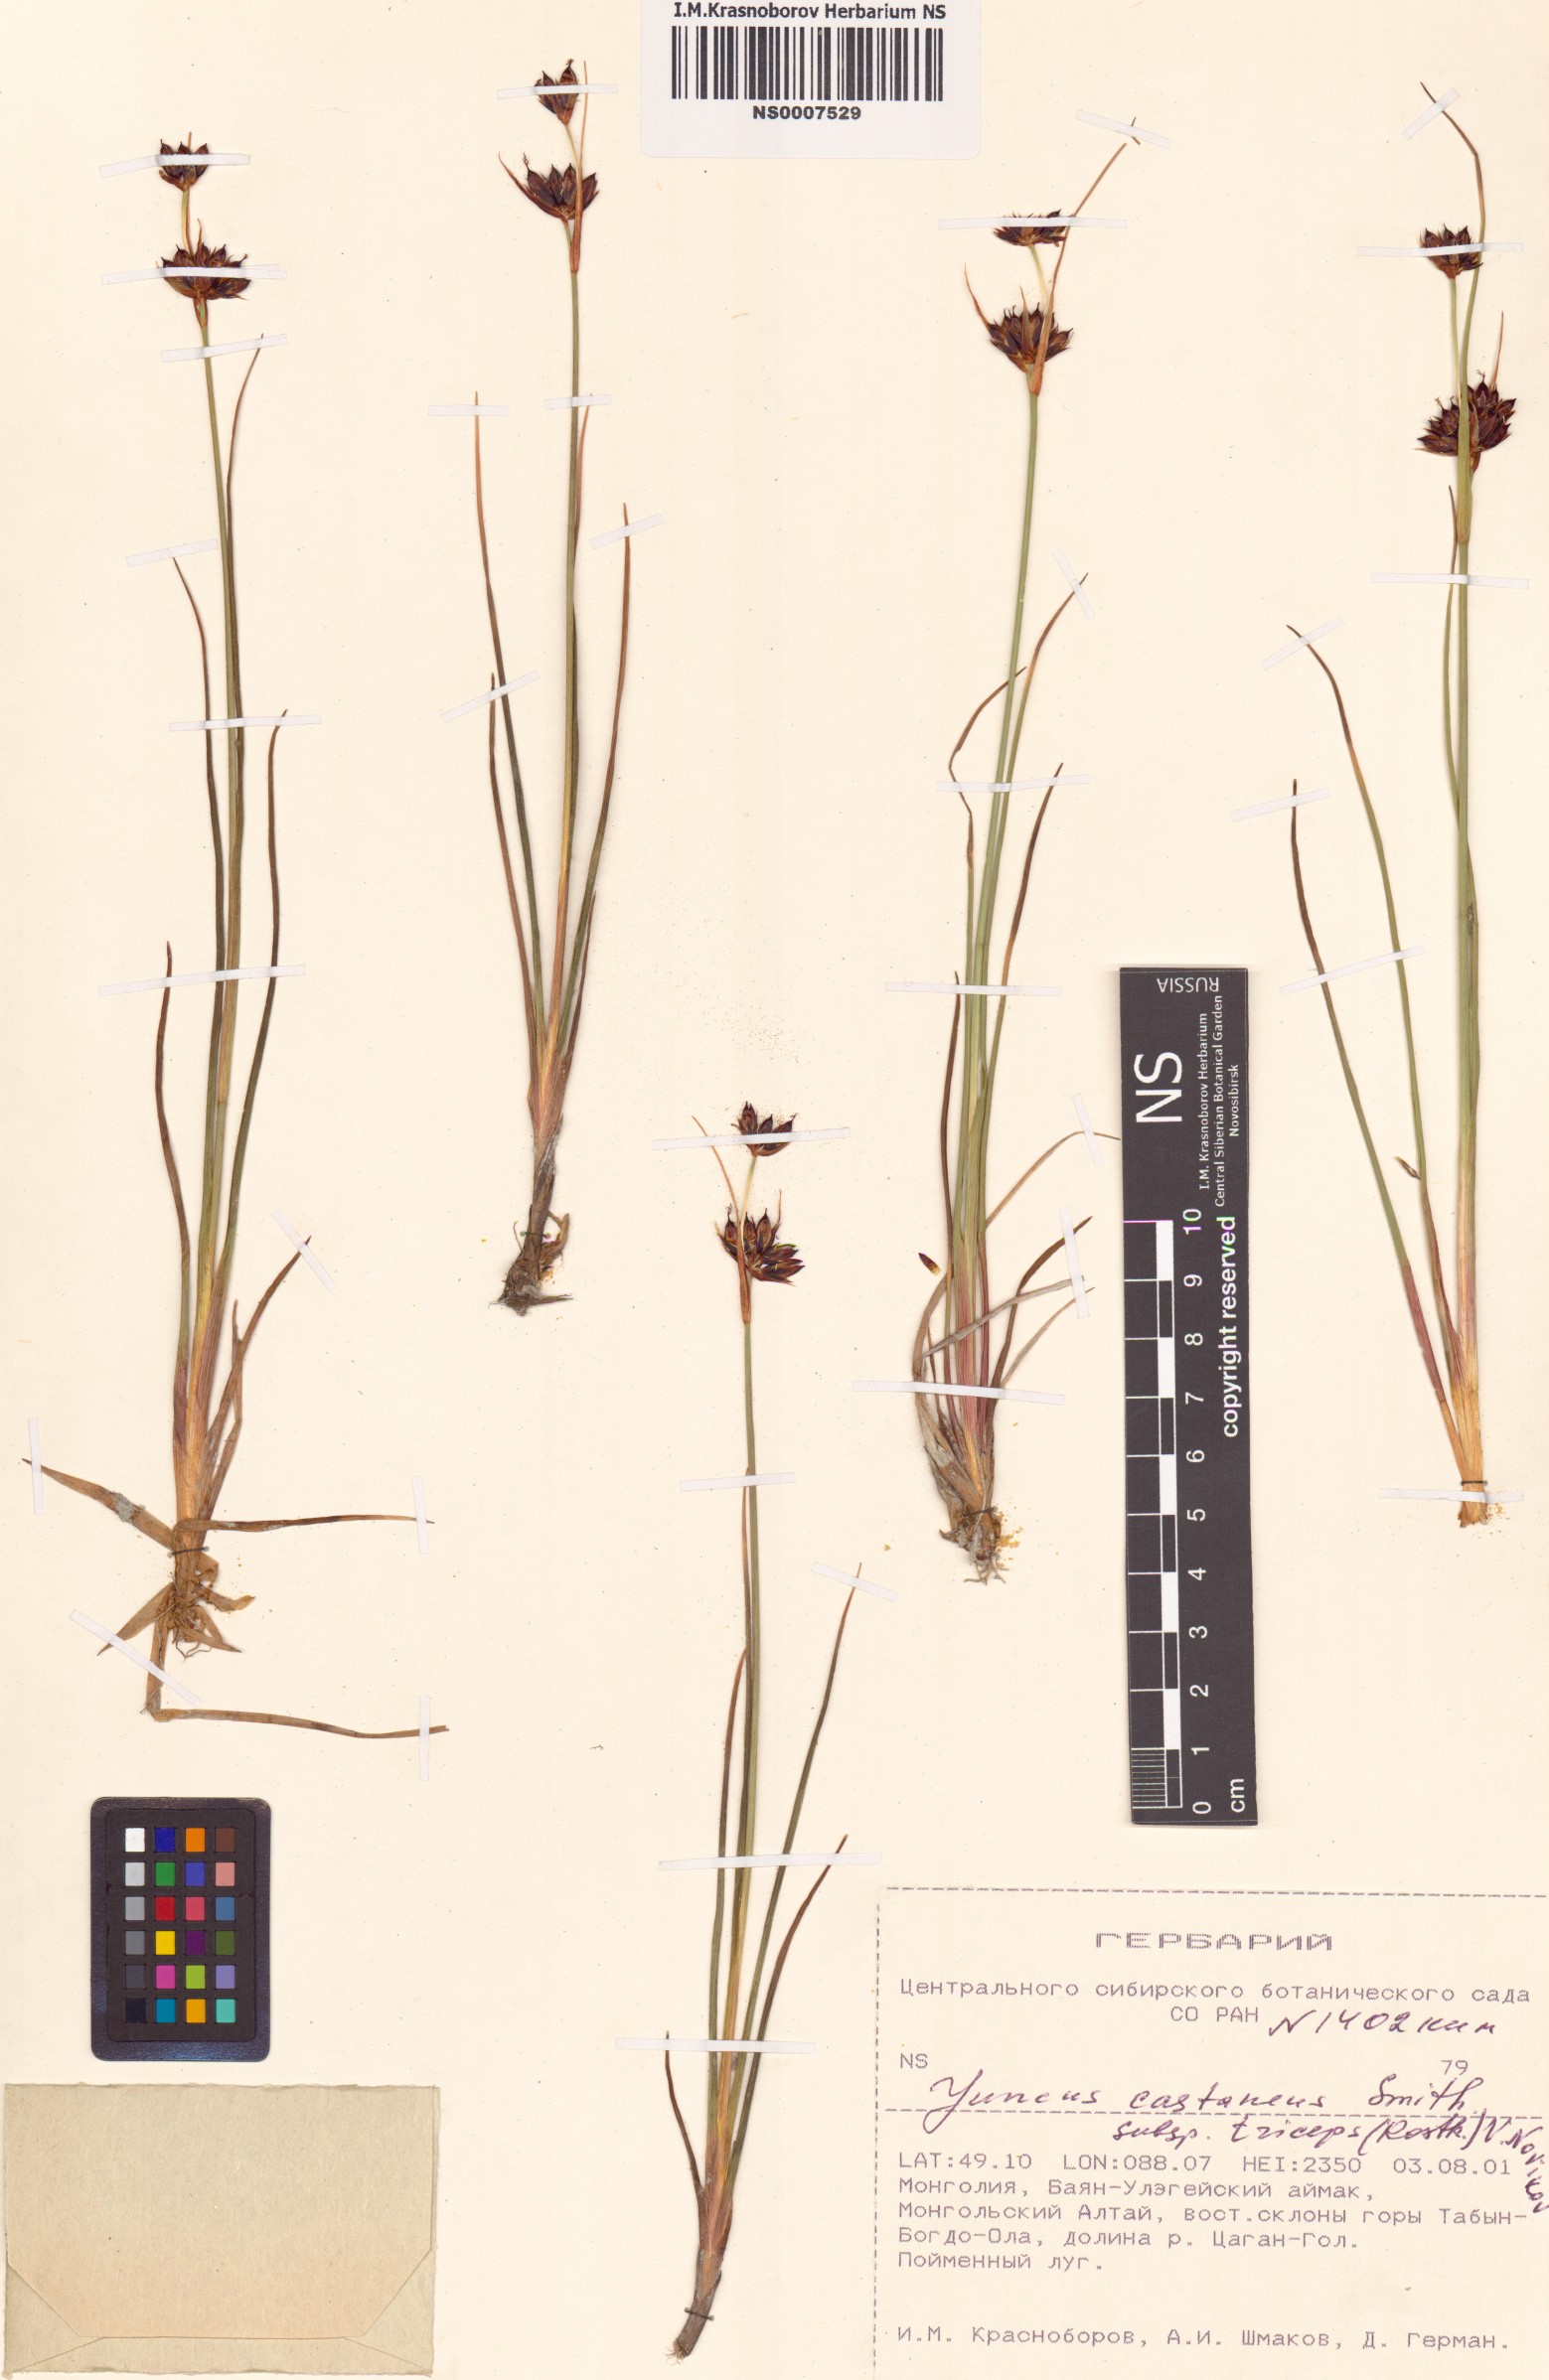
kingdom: Plantae
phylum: Tracheophyta
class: Liliopsida
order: Poales
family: Juncaceae
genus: Juncus
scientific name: Juncus castaneus
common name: Chestnut rush
